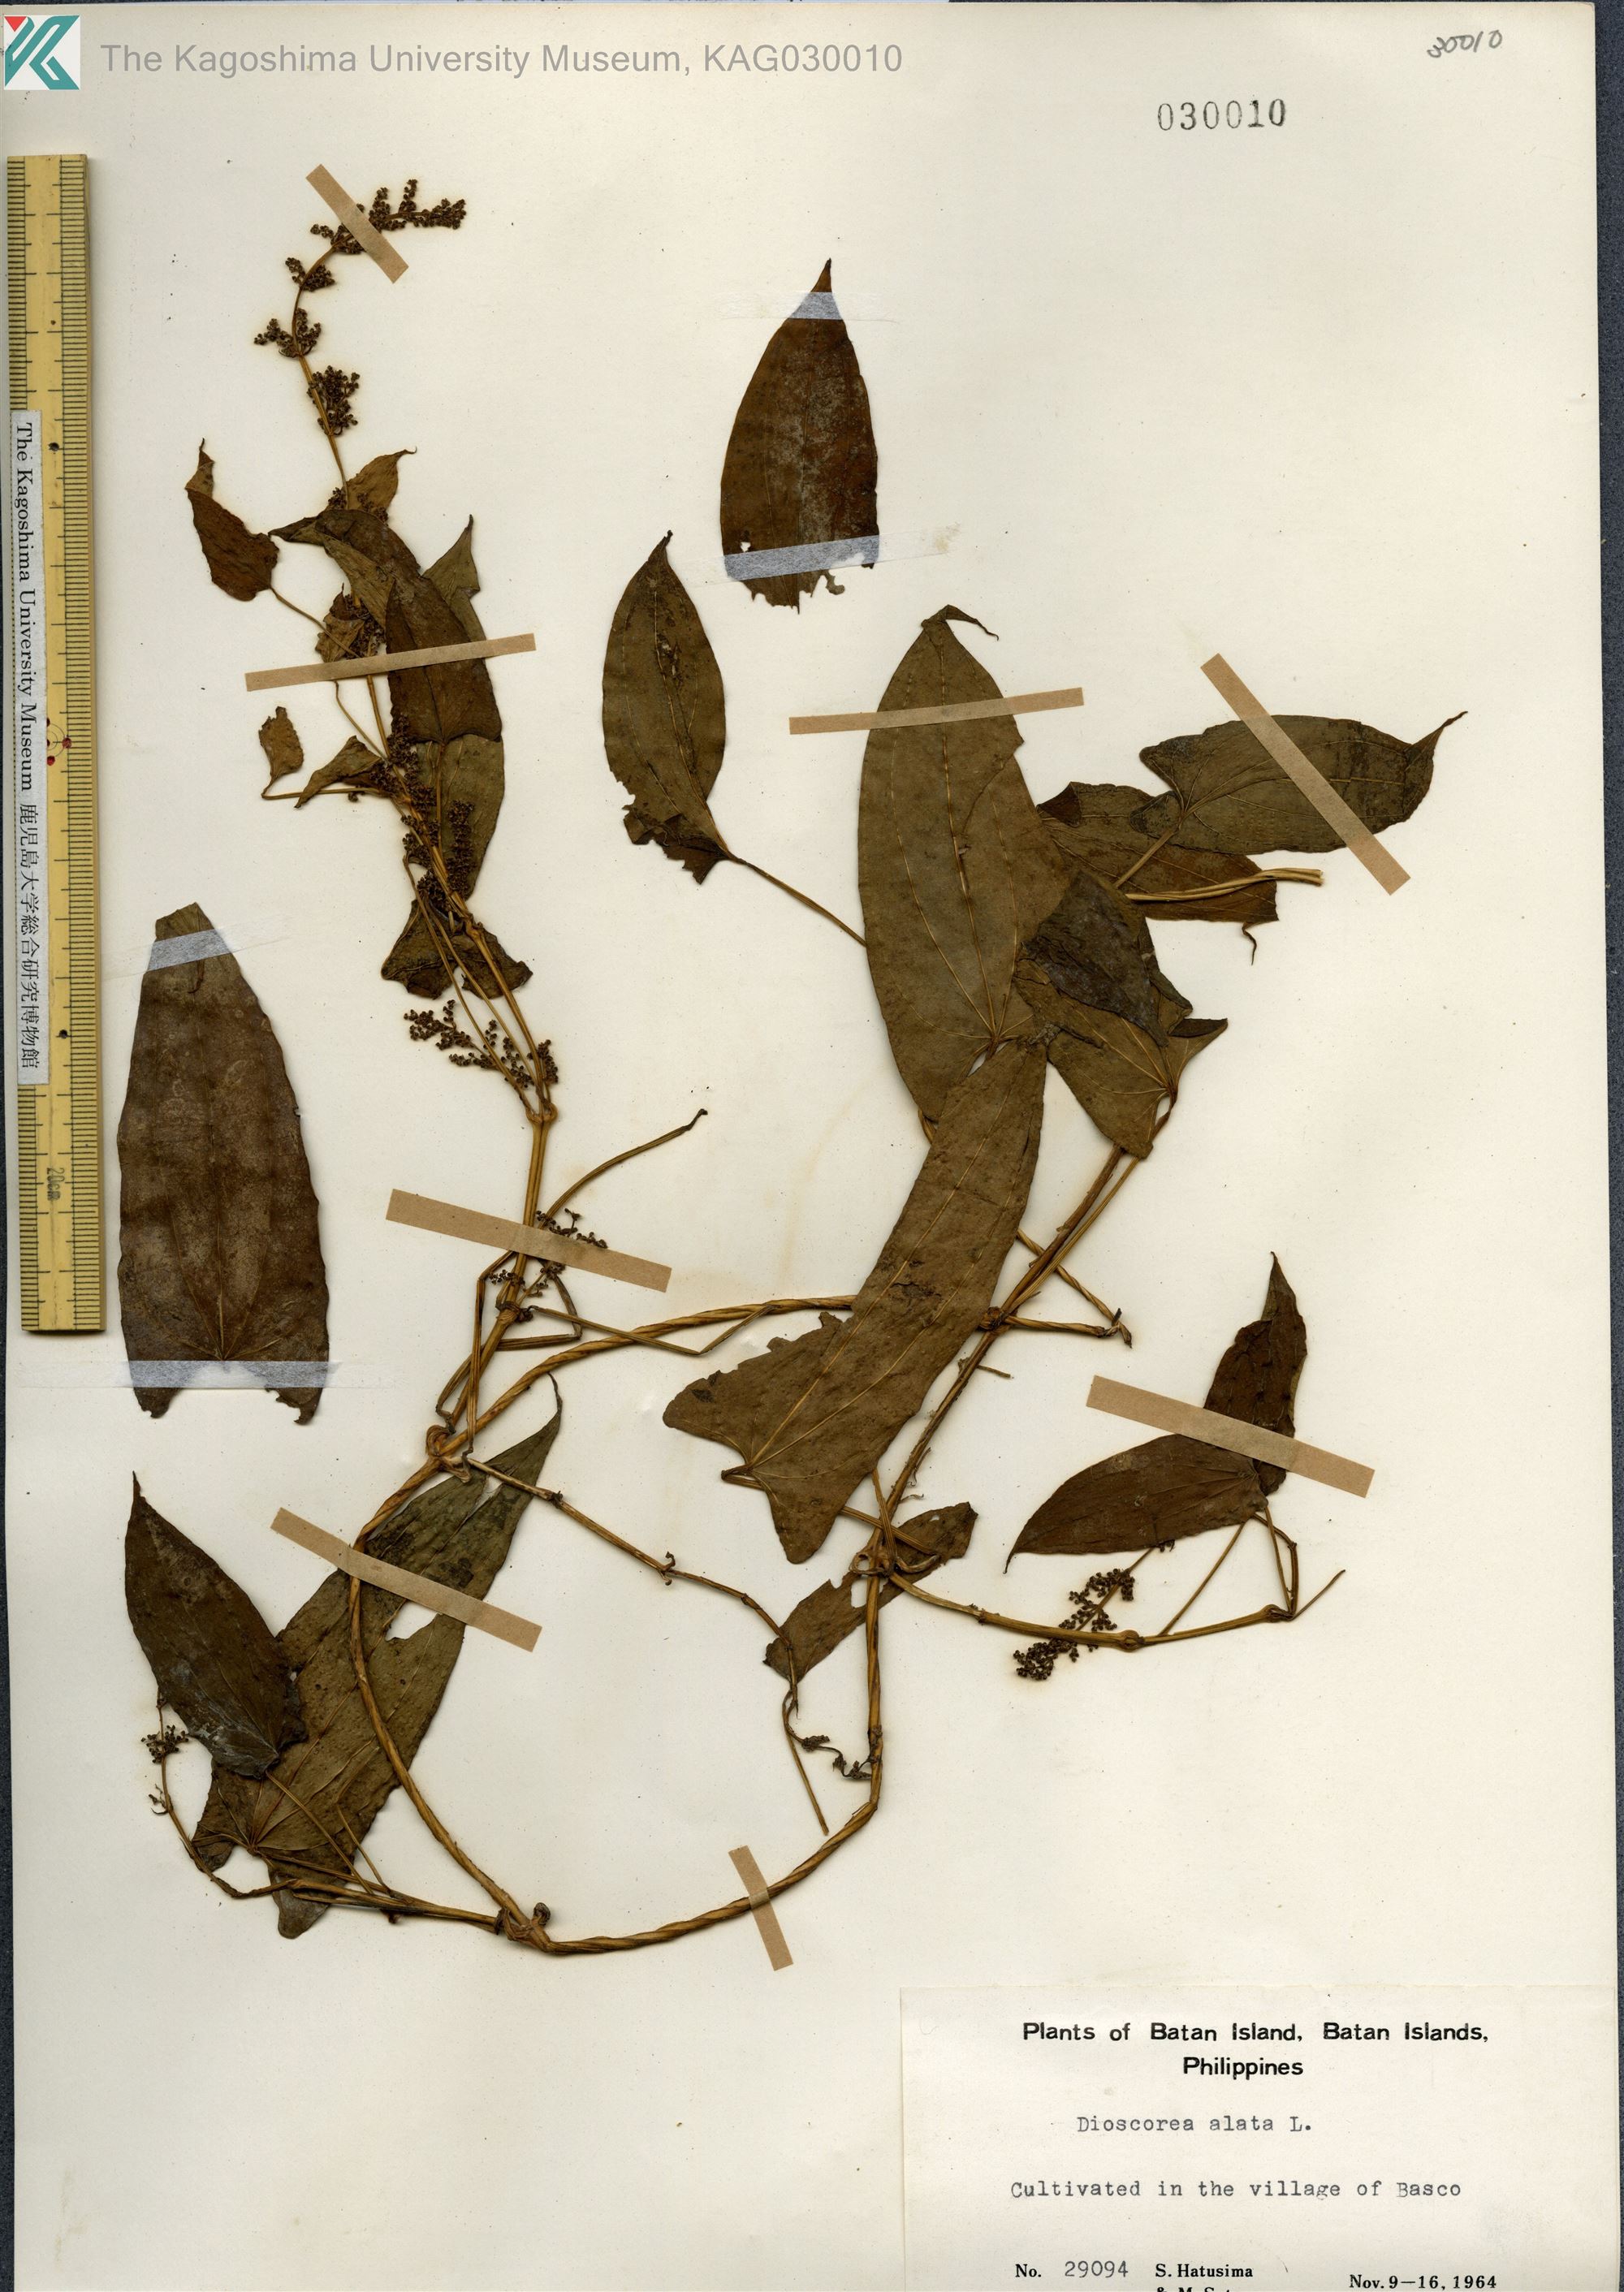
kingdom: Plantae
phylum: Tracheophyta
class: Liliopsida
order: Dioscoreales
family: Dioscoreaceae
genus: Dioscorea
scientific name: Dioscorea alata
